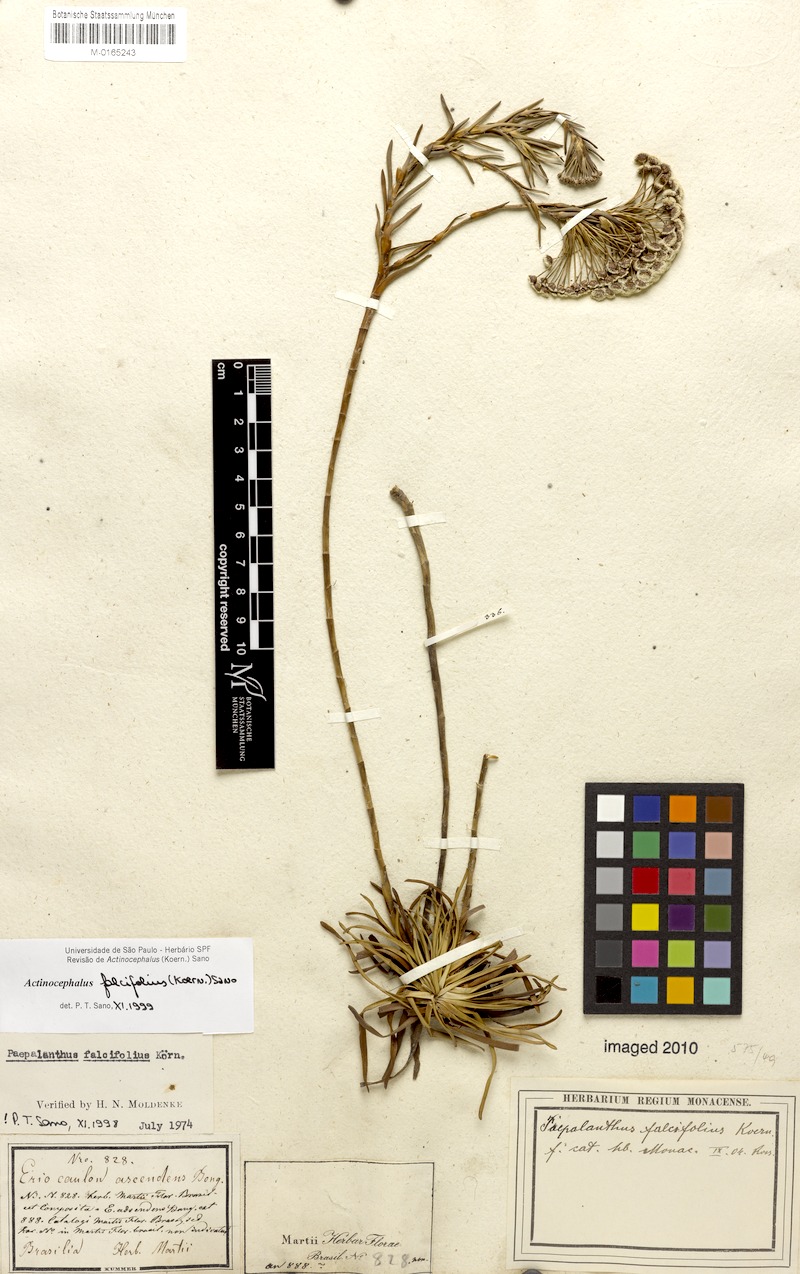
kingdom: Plantae
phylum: Tracheophyta
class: Liliopsida
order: Poales
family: Eriocaulaceae
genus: Paepalanthus
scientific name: Paepalanthus falcifolius
